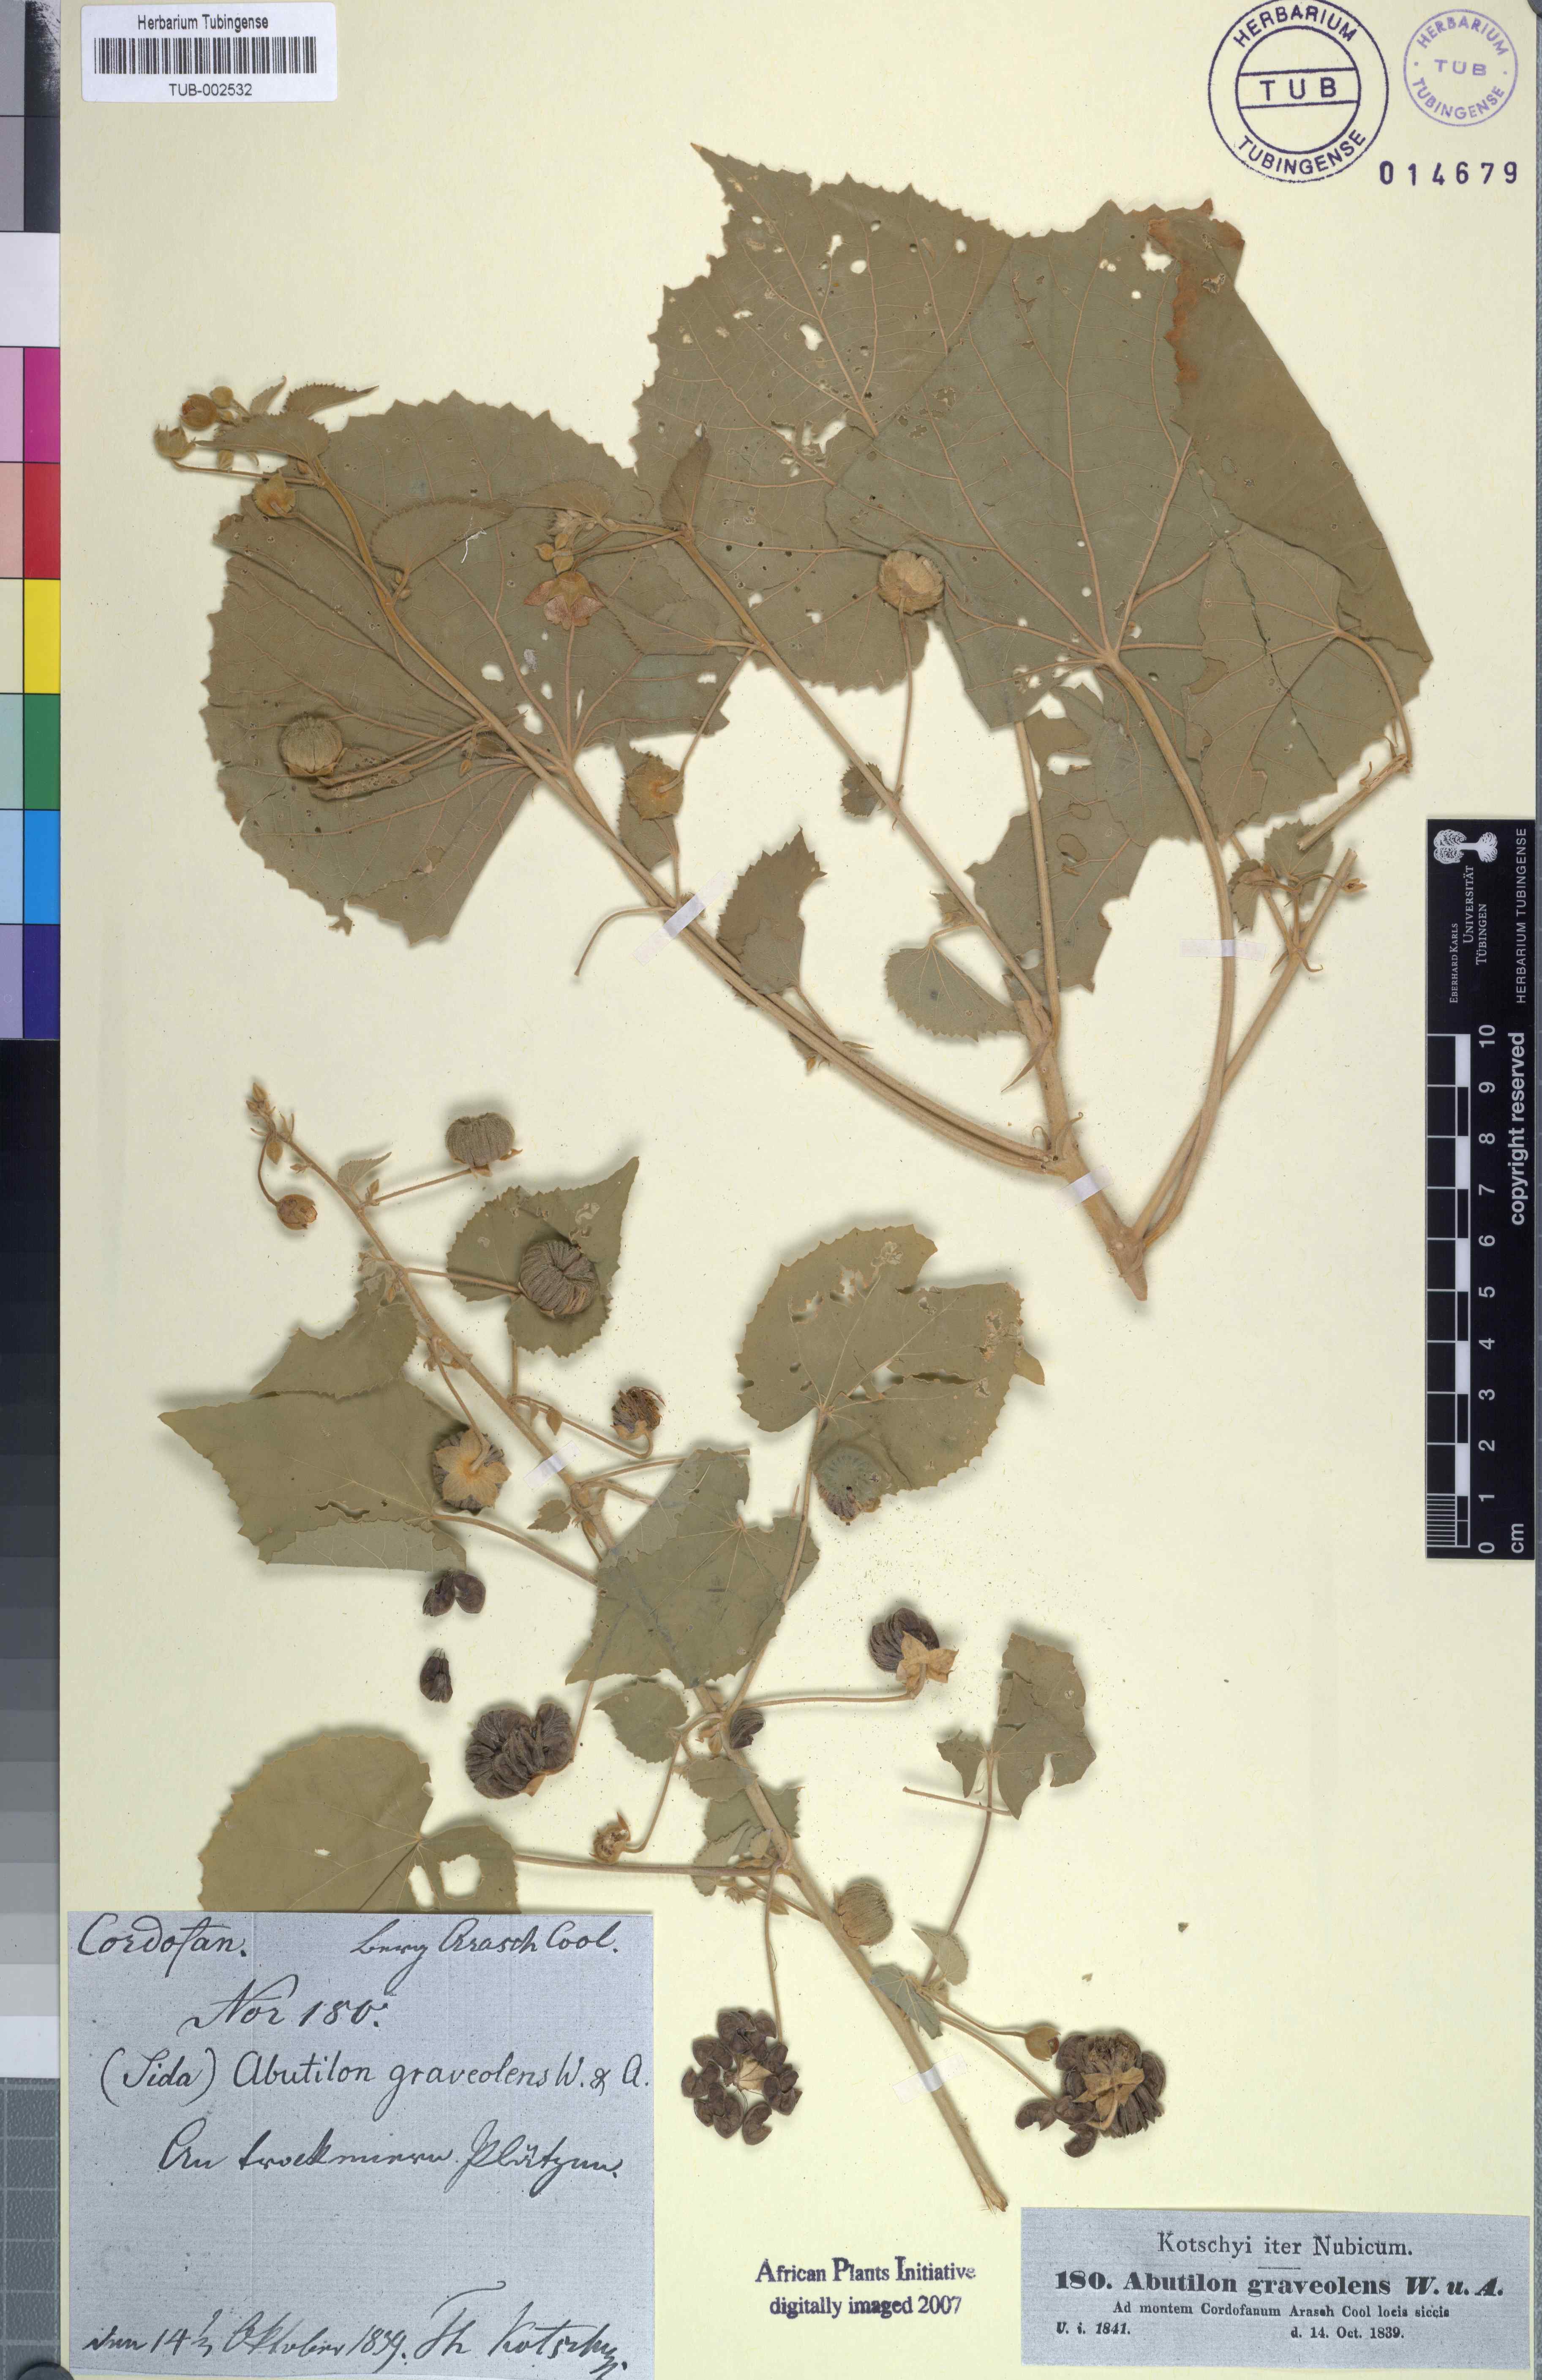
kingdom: Plantae
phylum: Tracheophyta
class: Magnoliopsida
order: Malvales
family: Malvaceae
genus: Abutilon
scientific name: Abutilon hirtum
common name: Florida keys indian mallow
